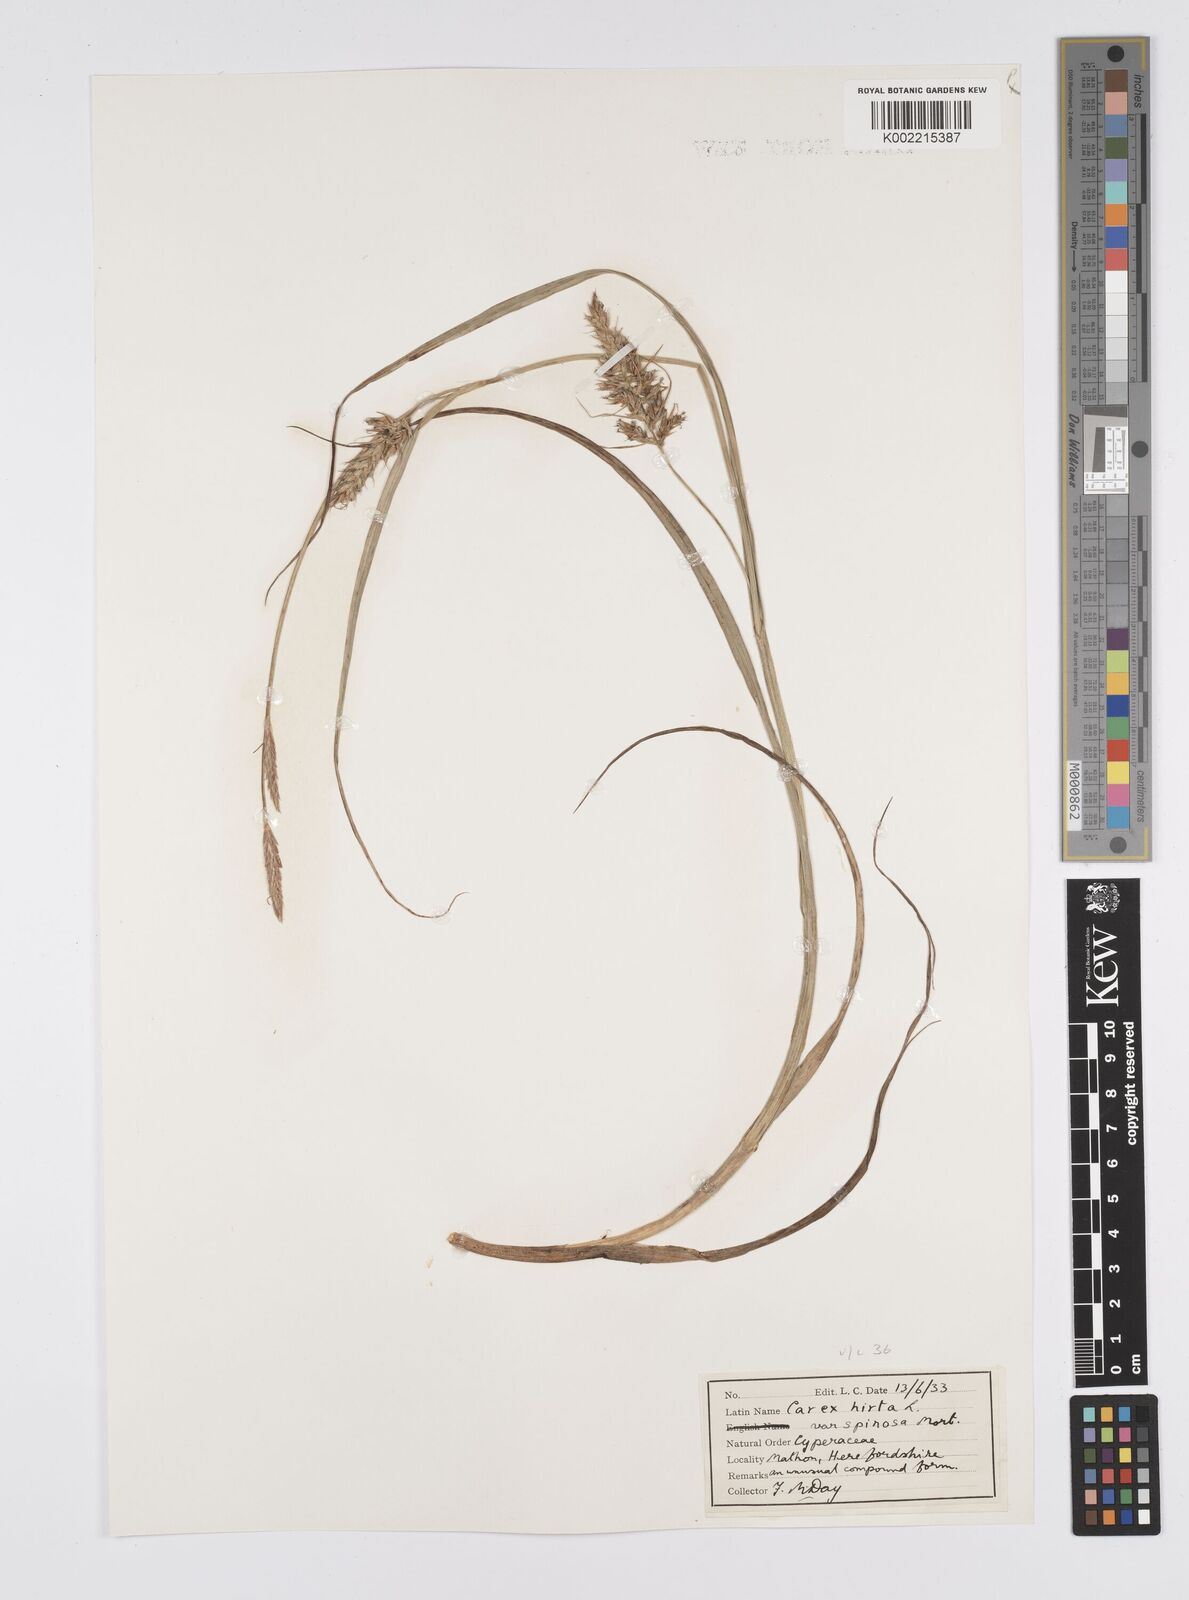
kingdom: Plantae
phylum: Tracheophyta
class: Liliopsida
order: Poales
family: Cyperaceae
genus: Carex
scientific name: Carex hirta
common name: Hairy sedge
